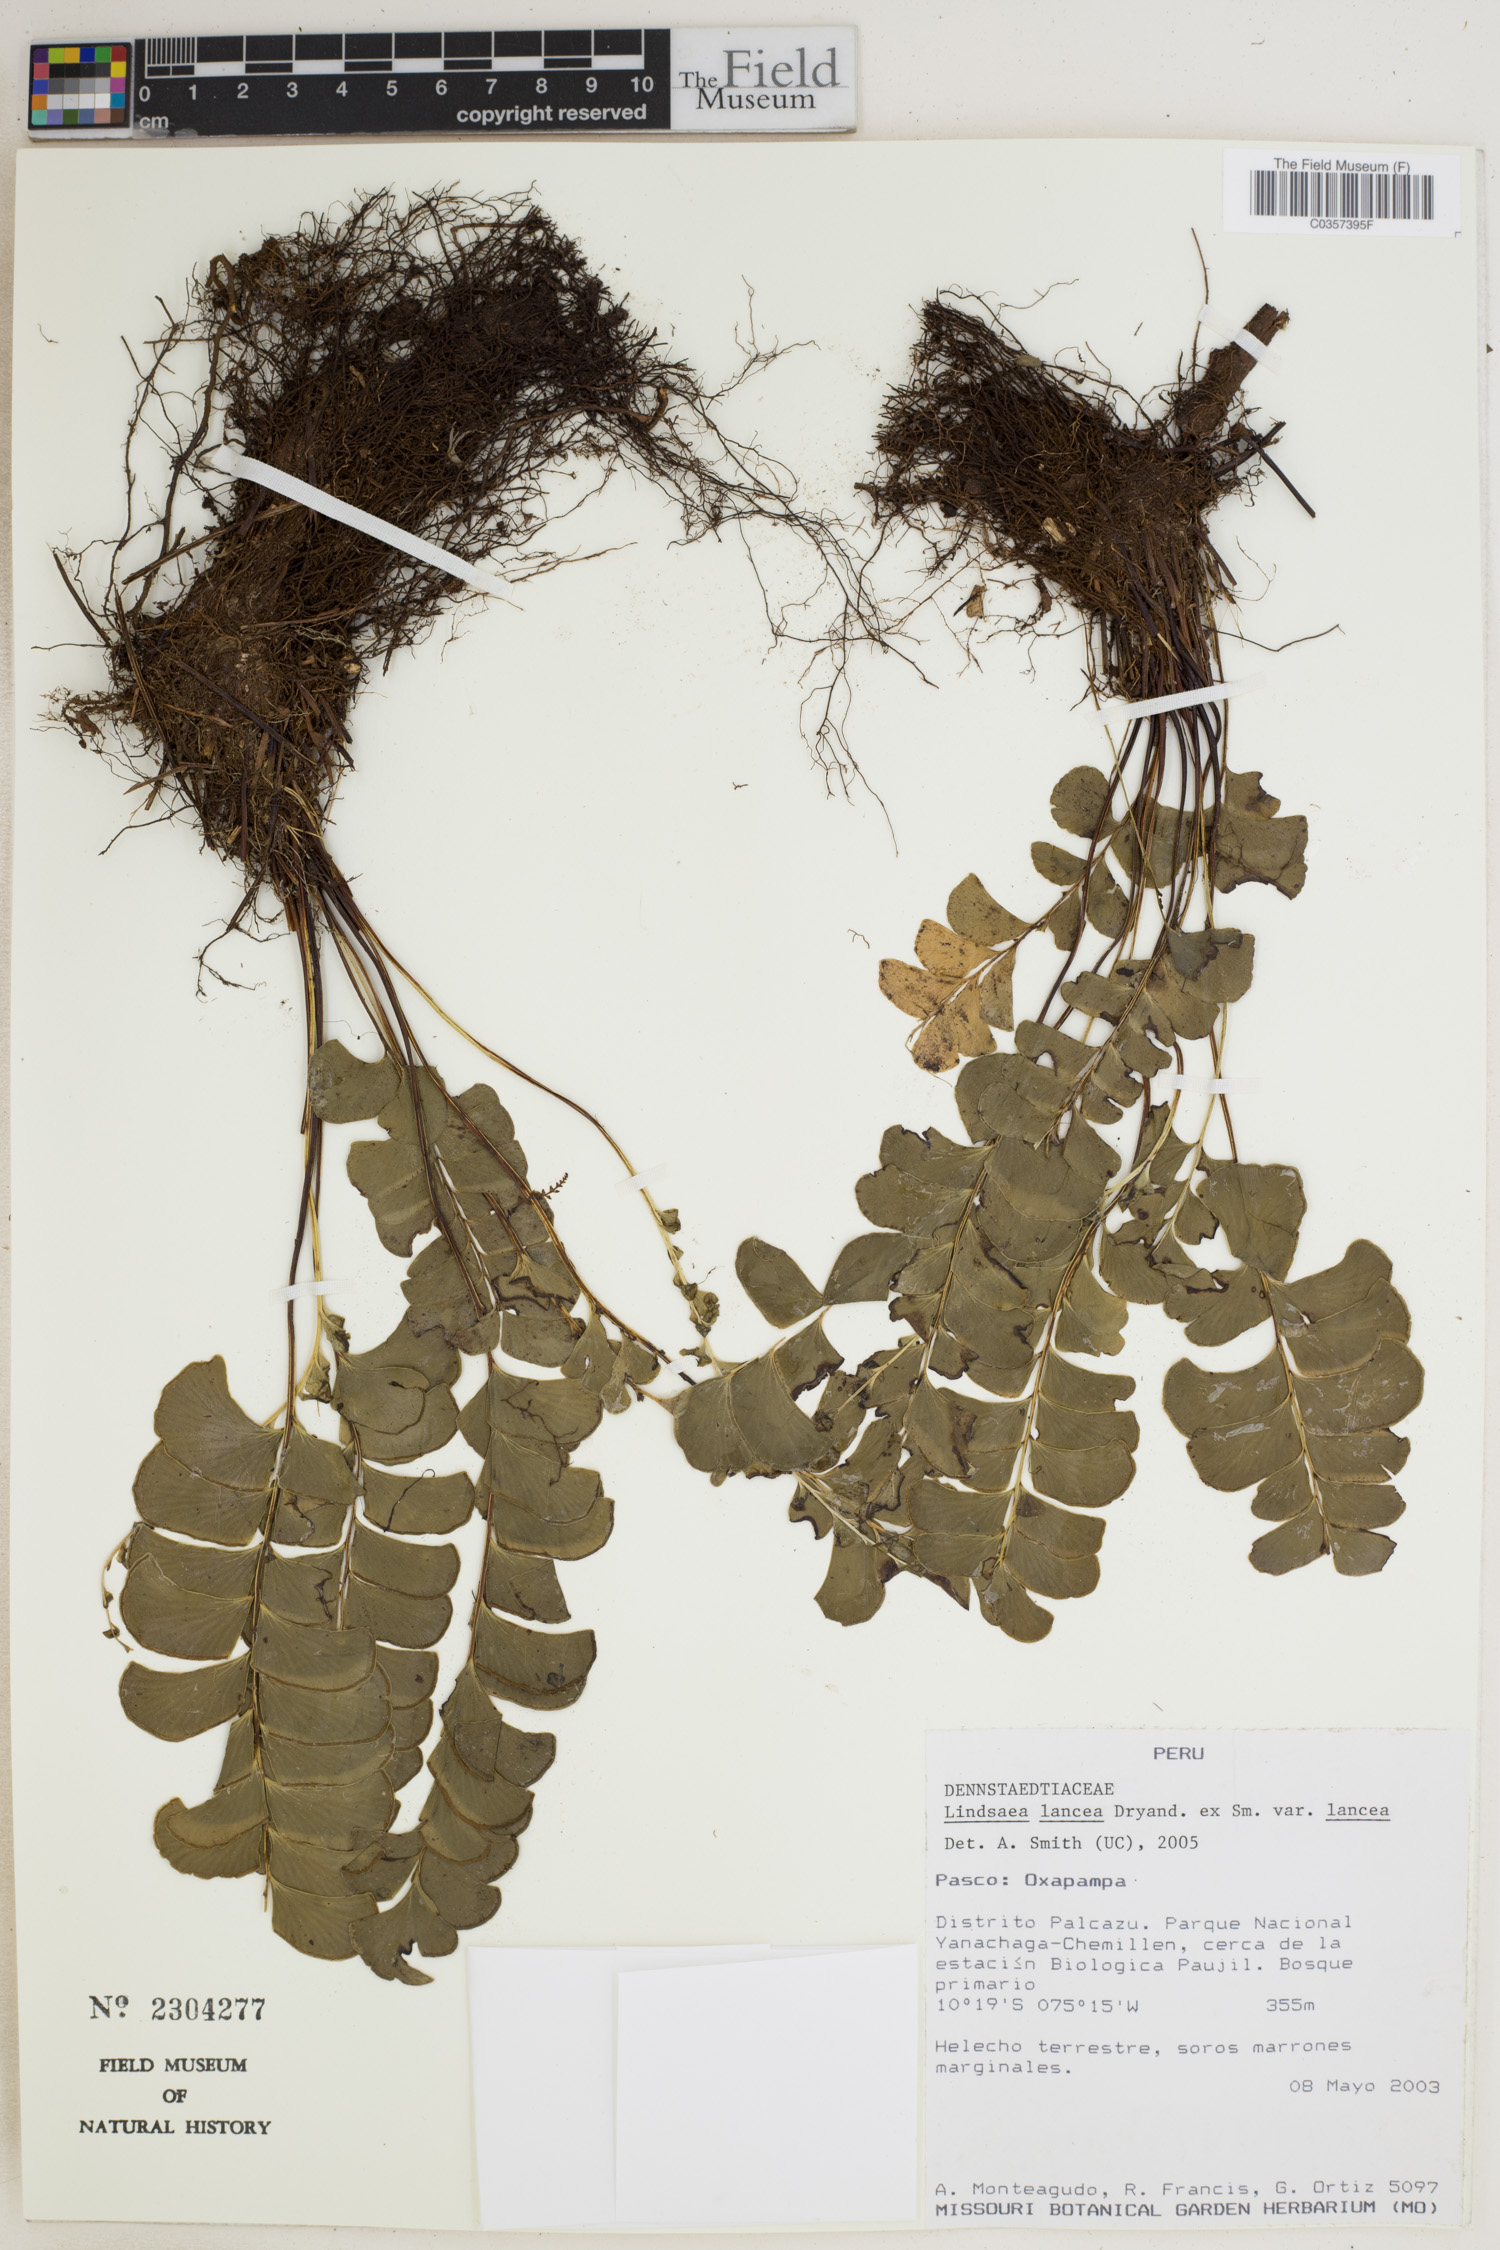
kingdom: Plantae
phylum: Tracheophyta
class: Polypodiopsida
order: Polypodiales
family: Lindsaeaceae
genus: Lindsaea
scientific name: Lindsaea lancea
